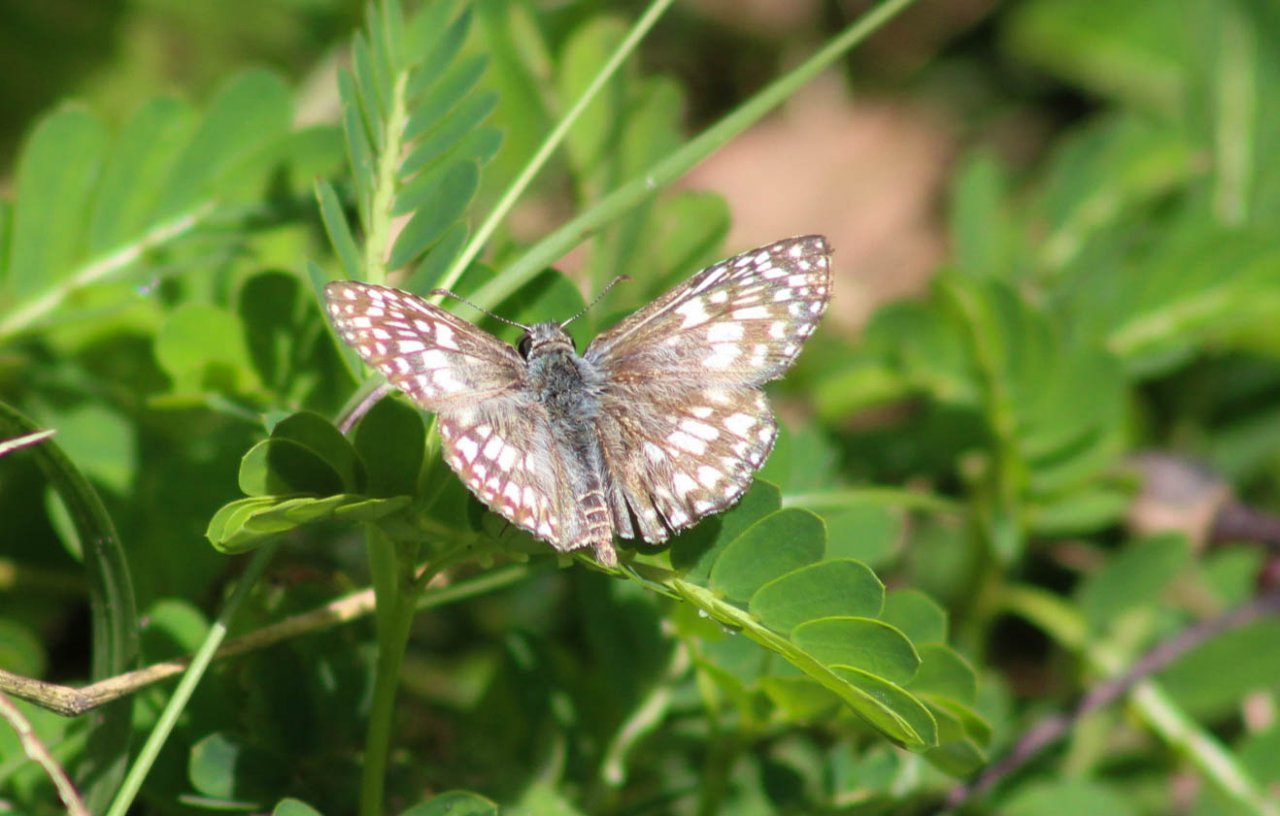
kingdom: Animalia
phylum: Arthropoda
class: Insecta
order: Lepidoptera
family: Hesperiidae
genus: Pyrgus
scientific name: Pyrgus oileus
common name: Tropical Checkered-Skipper
